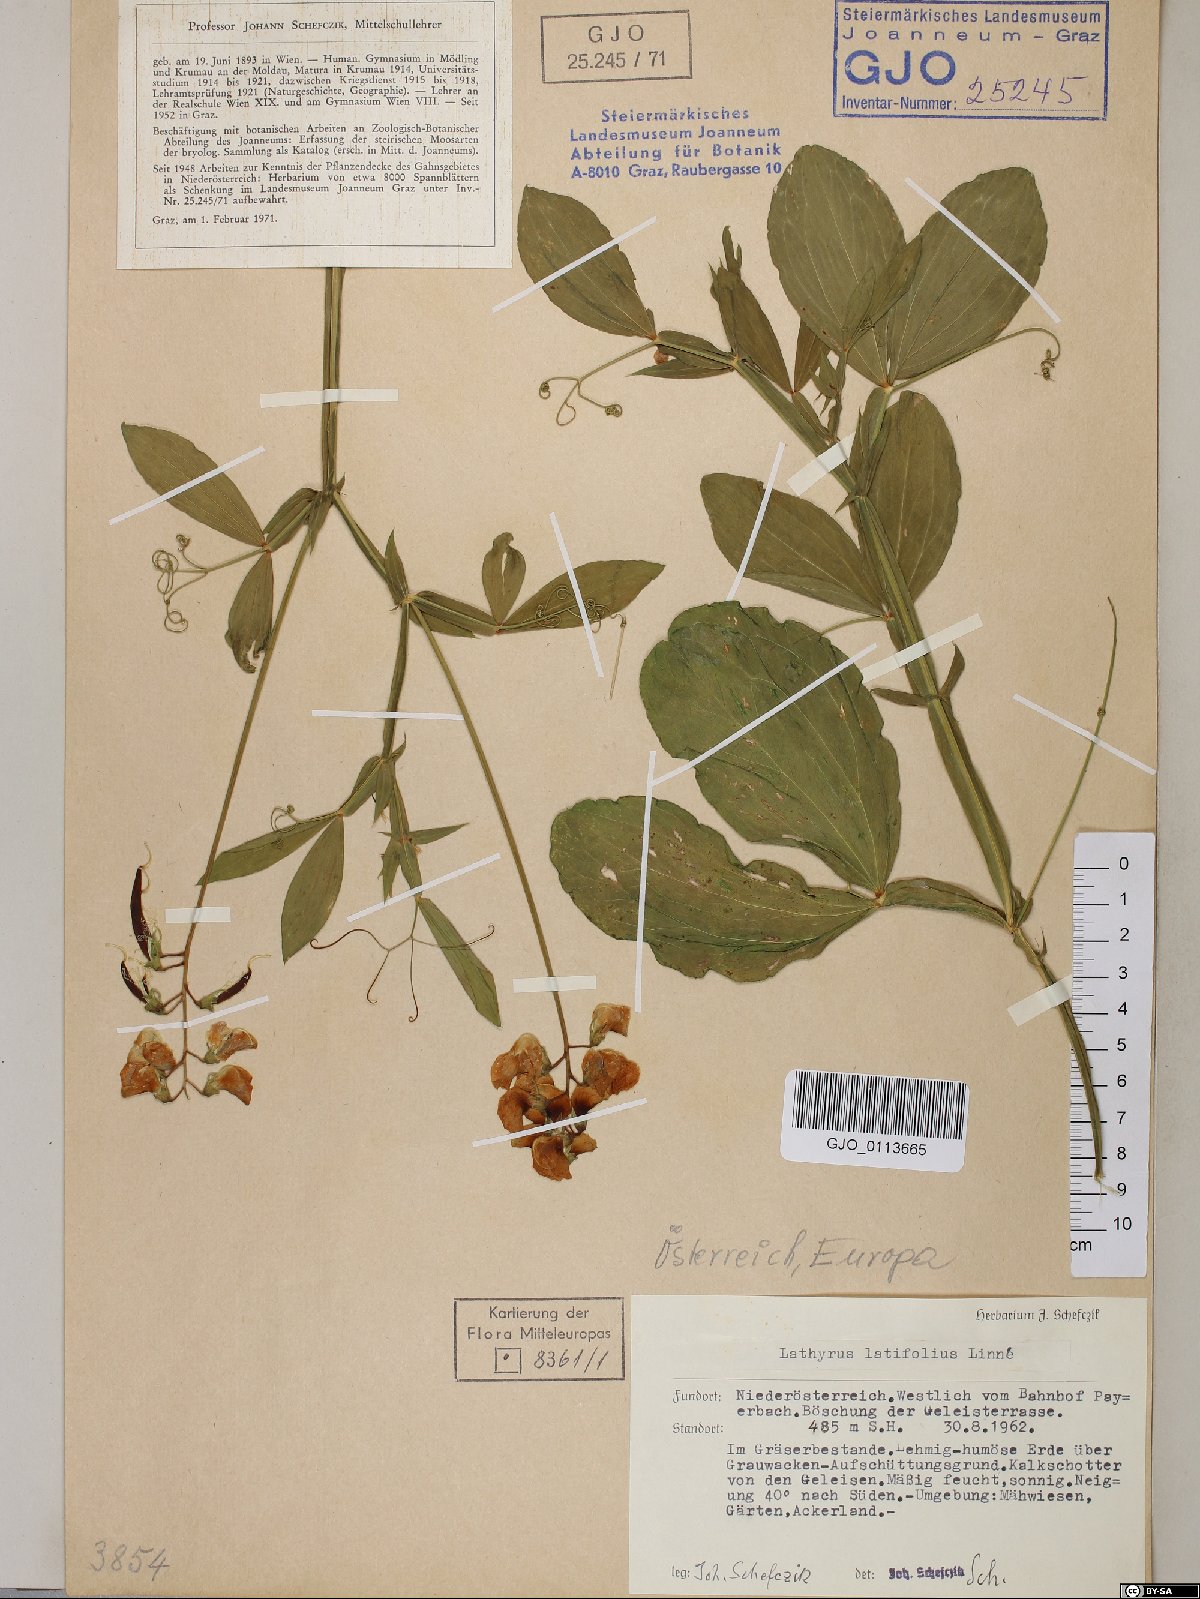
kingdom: Plantae
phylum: Tracheophyta
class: Magnoliopsida
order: Fabales
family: Fabaceae
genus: Lathyrus
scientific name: Lathyrus latifolius
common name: Perennial pea
